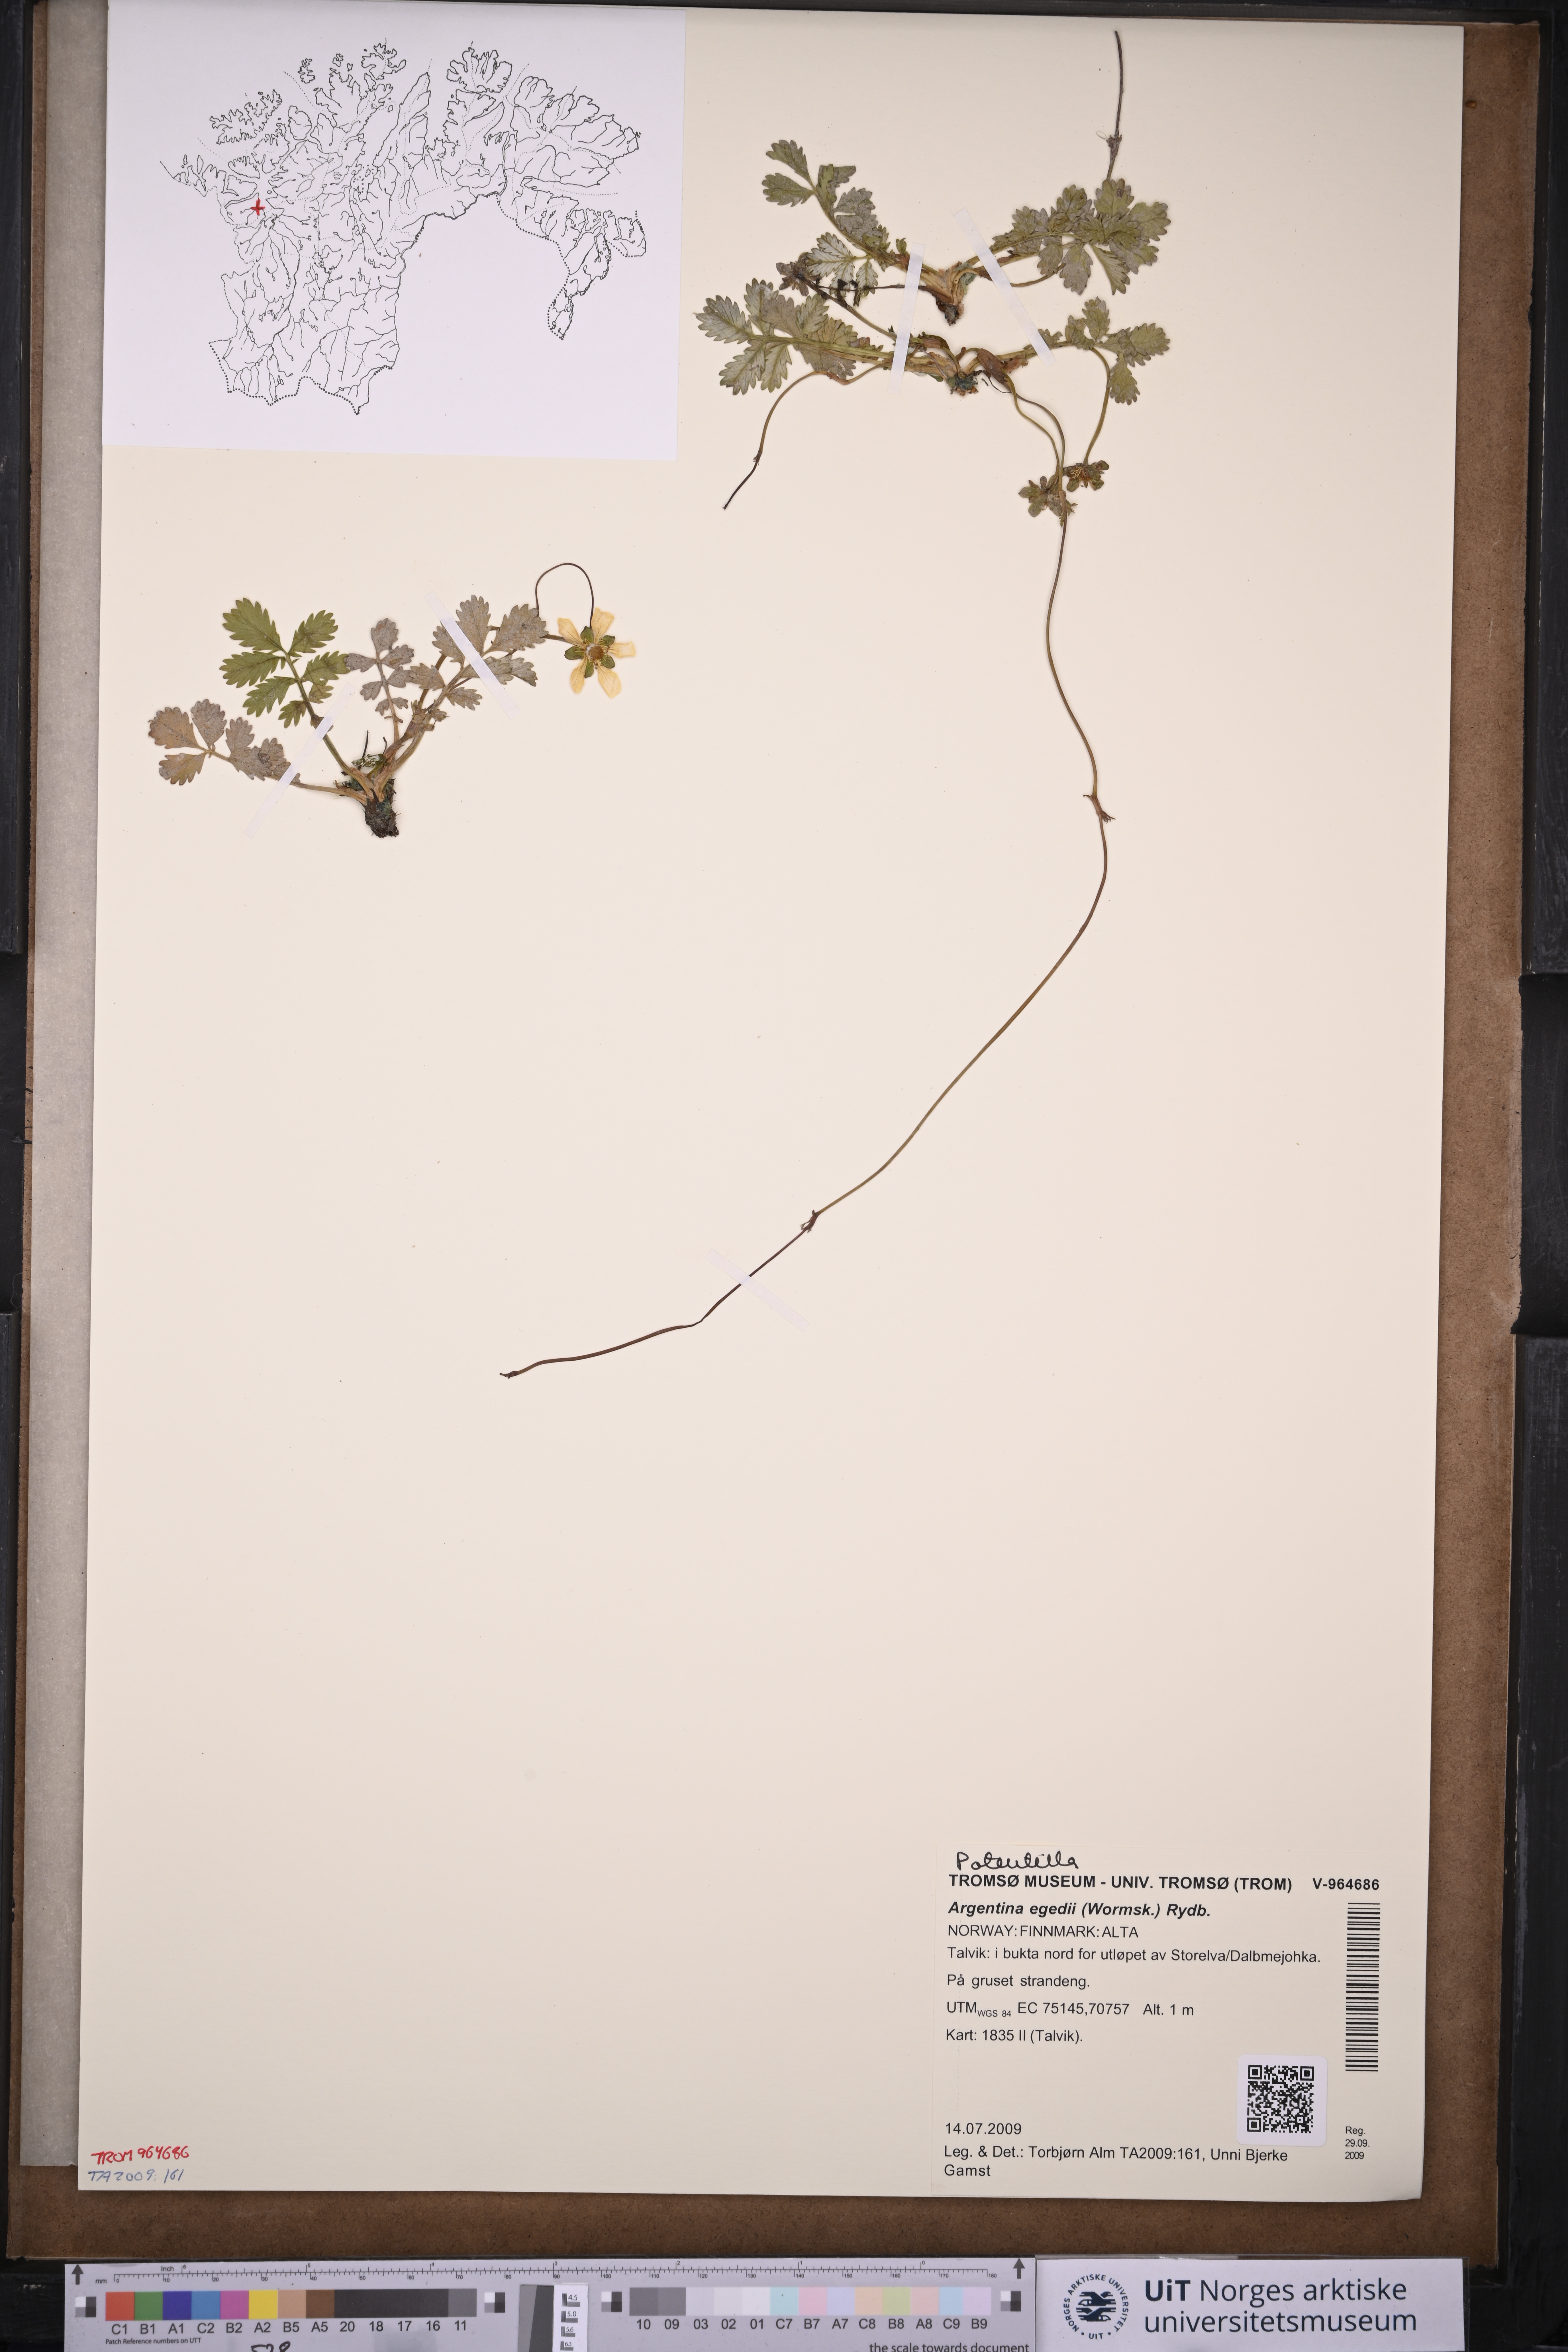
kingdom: Plantae
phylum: Tracheophyta
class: Magnoliopsida
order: Rosales
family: Rosaceae
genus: Argentina
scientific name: Argentina anserina
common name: Common silverweed
